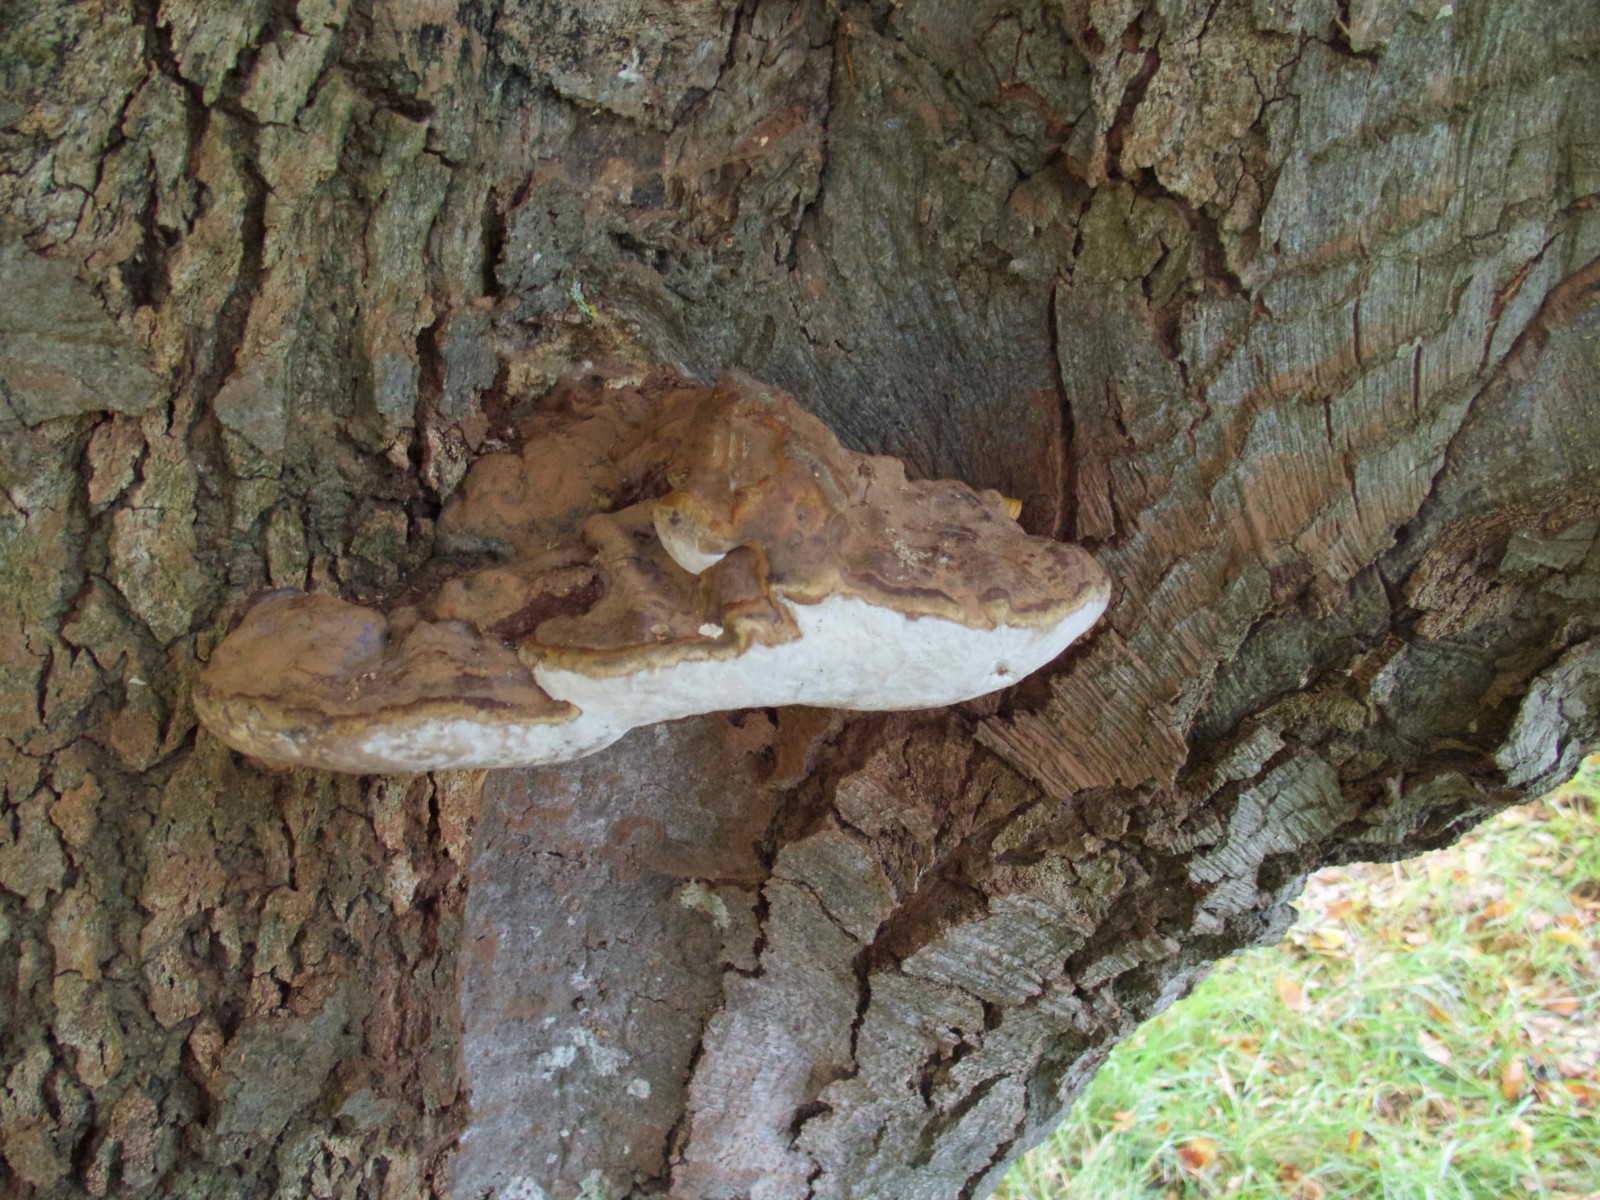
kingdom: Fungi
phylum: Basidiomycota
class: Agaricomycetes
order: Polyporales
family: Polyporaceae
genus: Ganoderma
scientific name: Ganoderma pfeifferi
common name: kobberrød lakporesvamp
